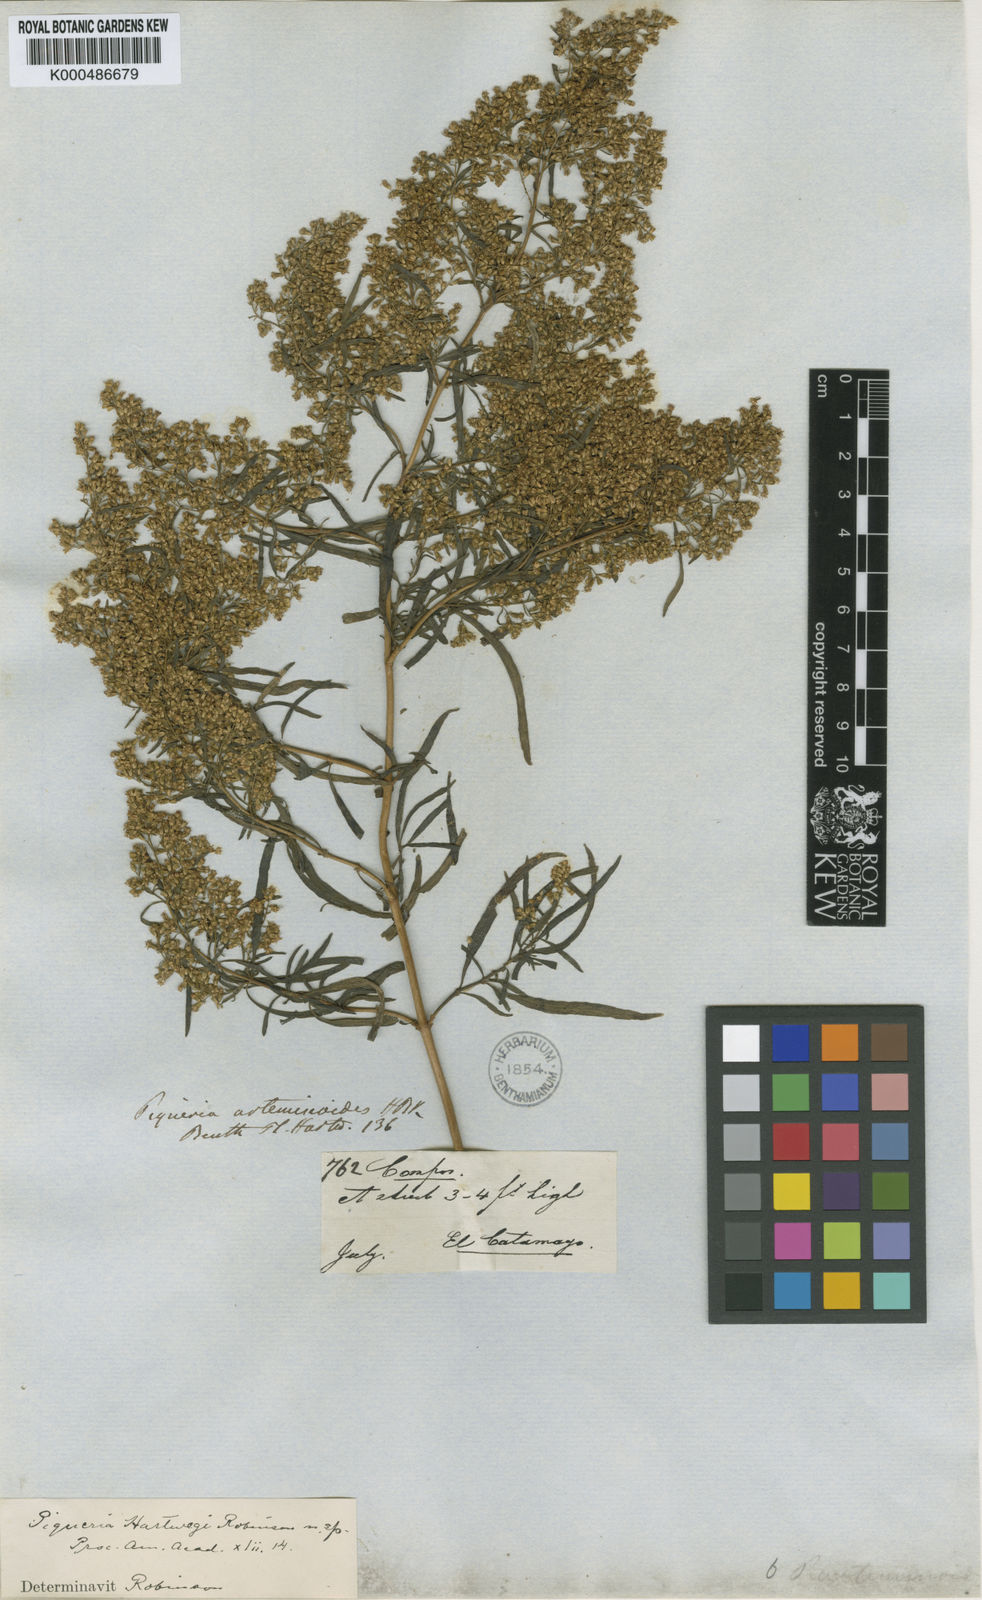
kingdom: Plantae
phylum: Tracheophyta
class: Magnoliopsida
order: Asterales
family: Asteraceae
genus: Ophryosporus
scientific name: Ophryosporus hartwegii
